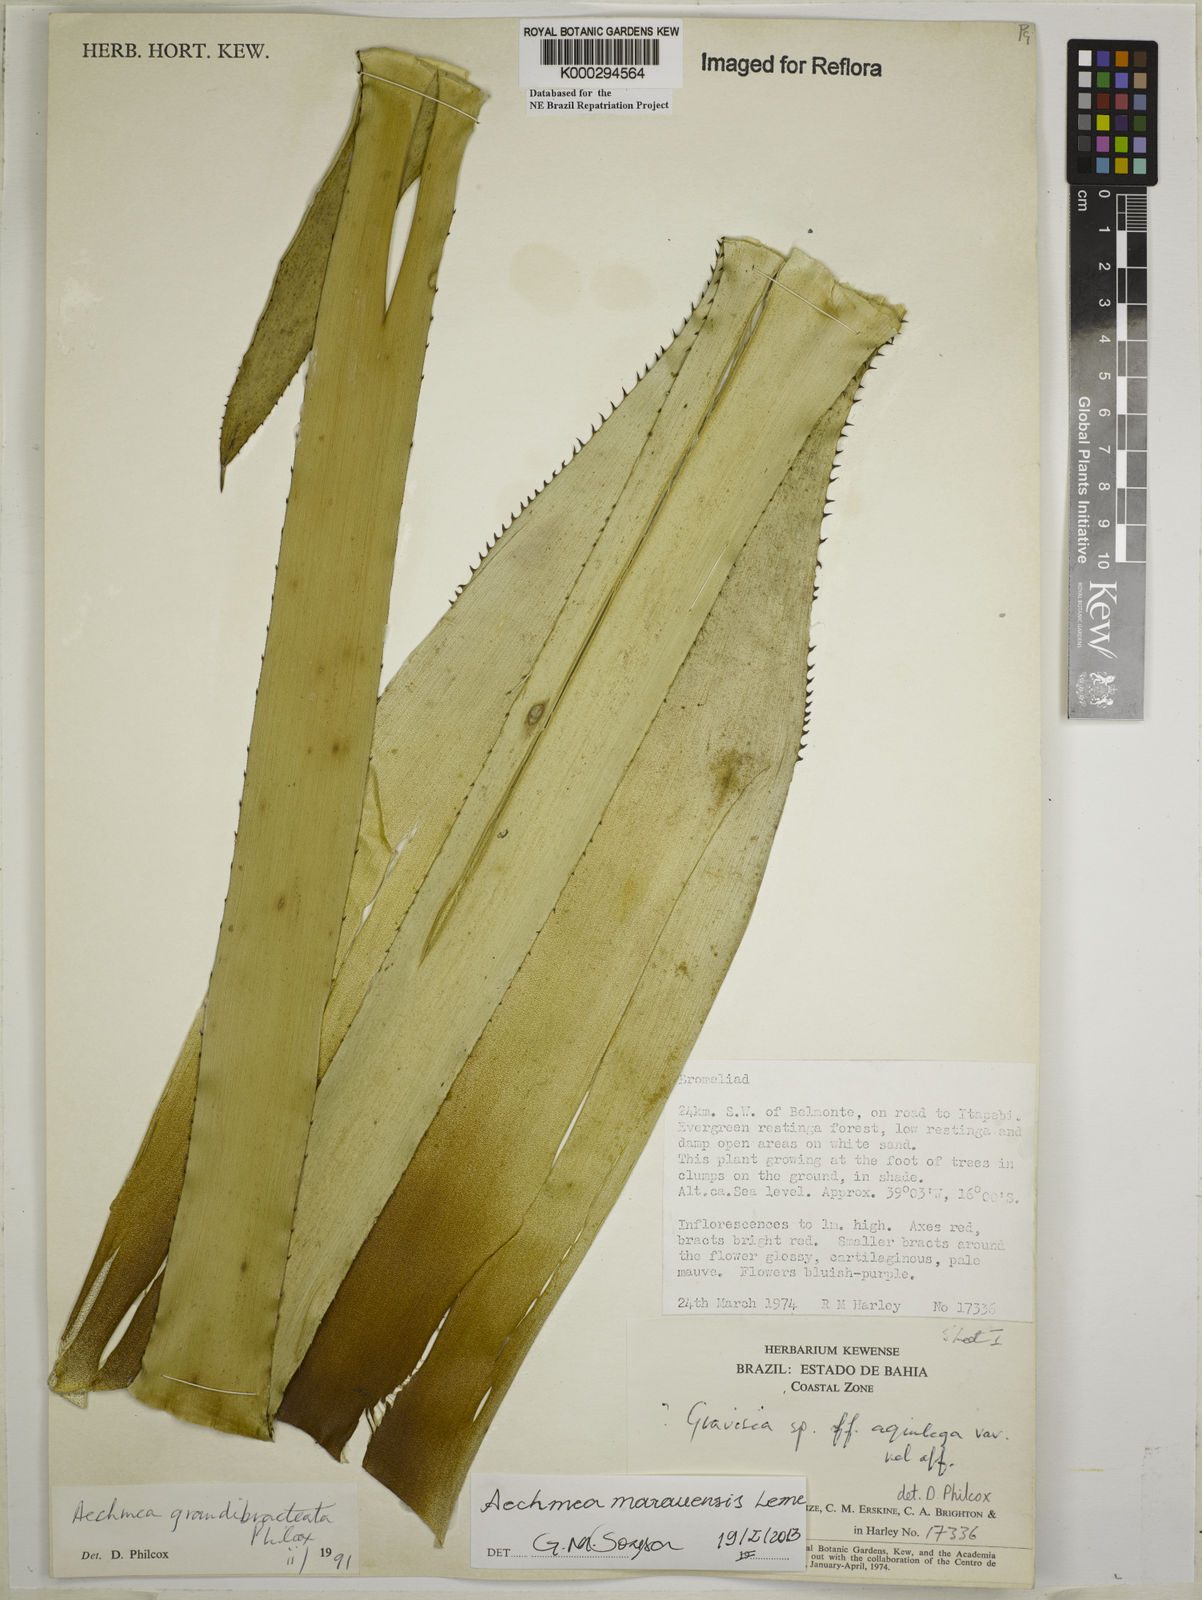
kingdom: Plantae
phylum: Tracheophyta
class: Liliopsida
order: Poales
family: Bromeliaceae
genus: Aechmea
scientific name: Aechmea marauensis
